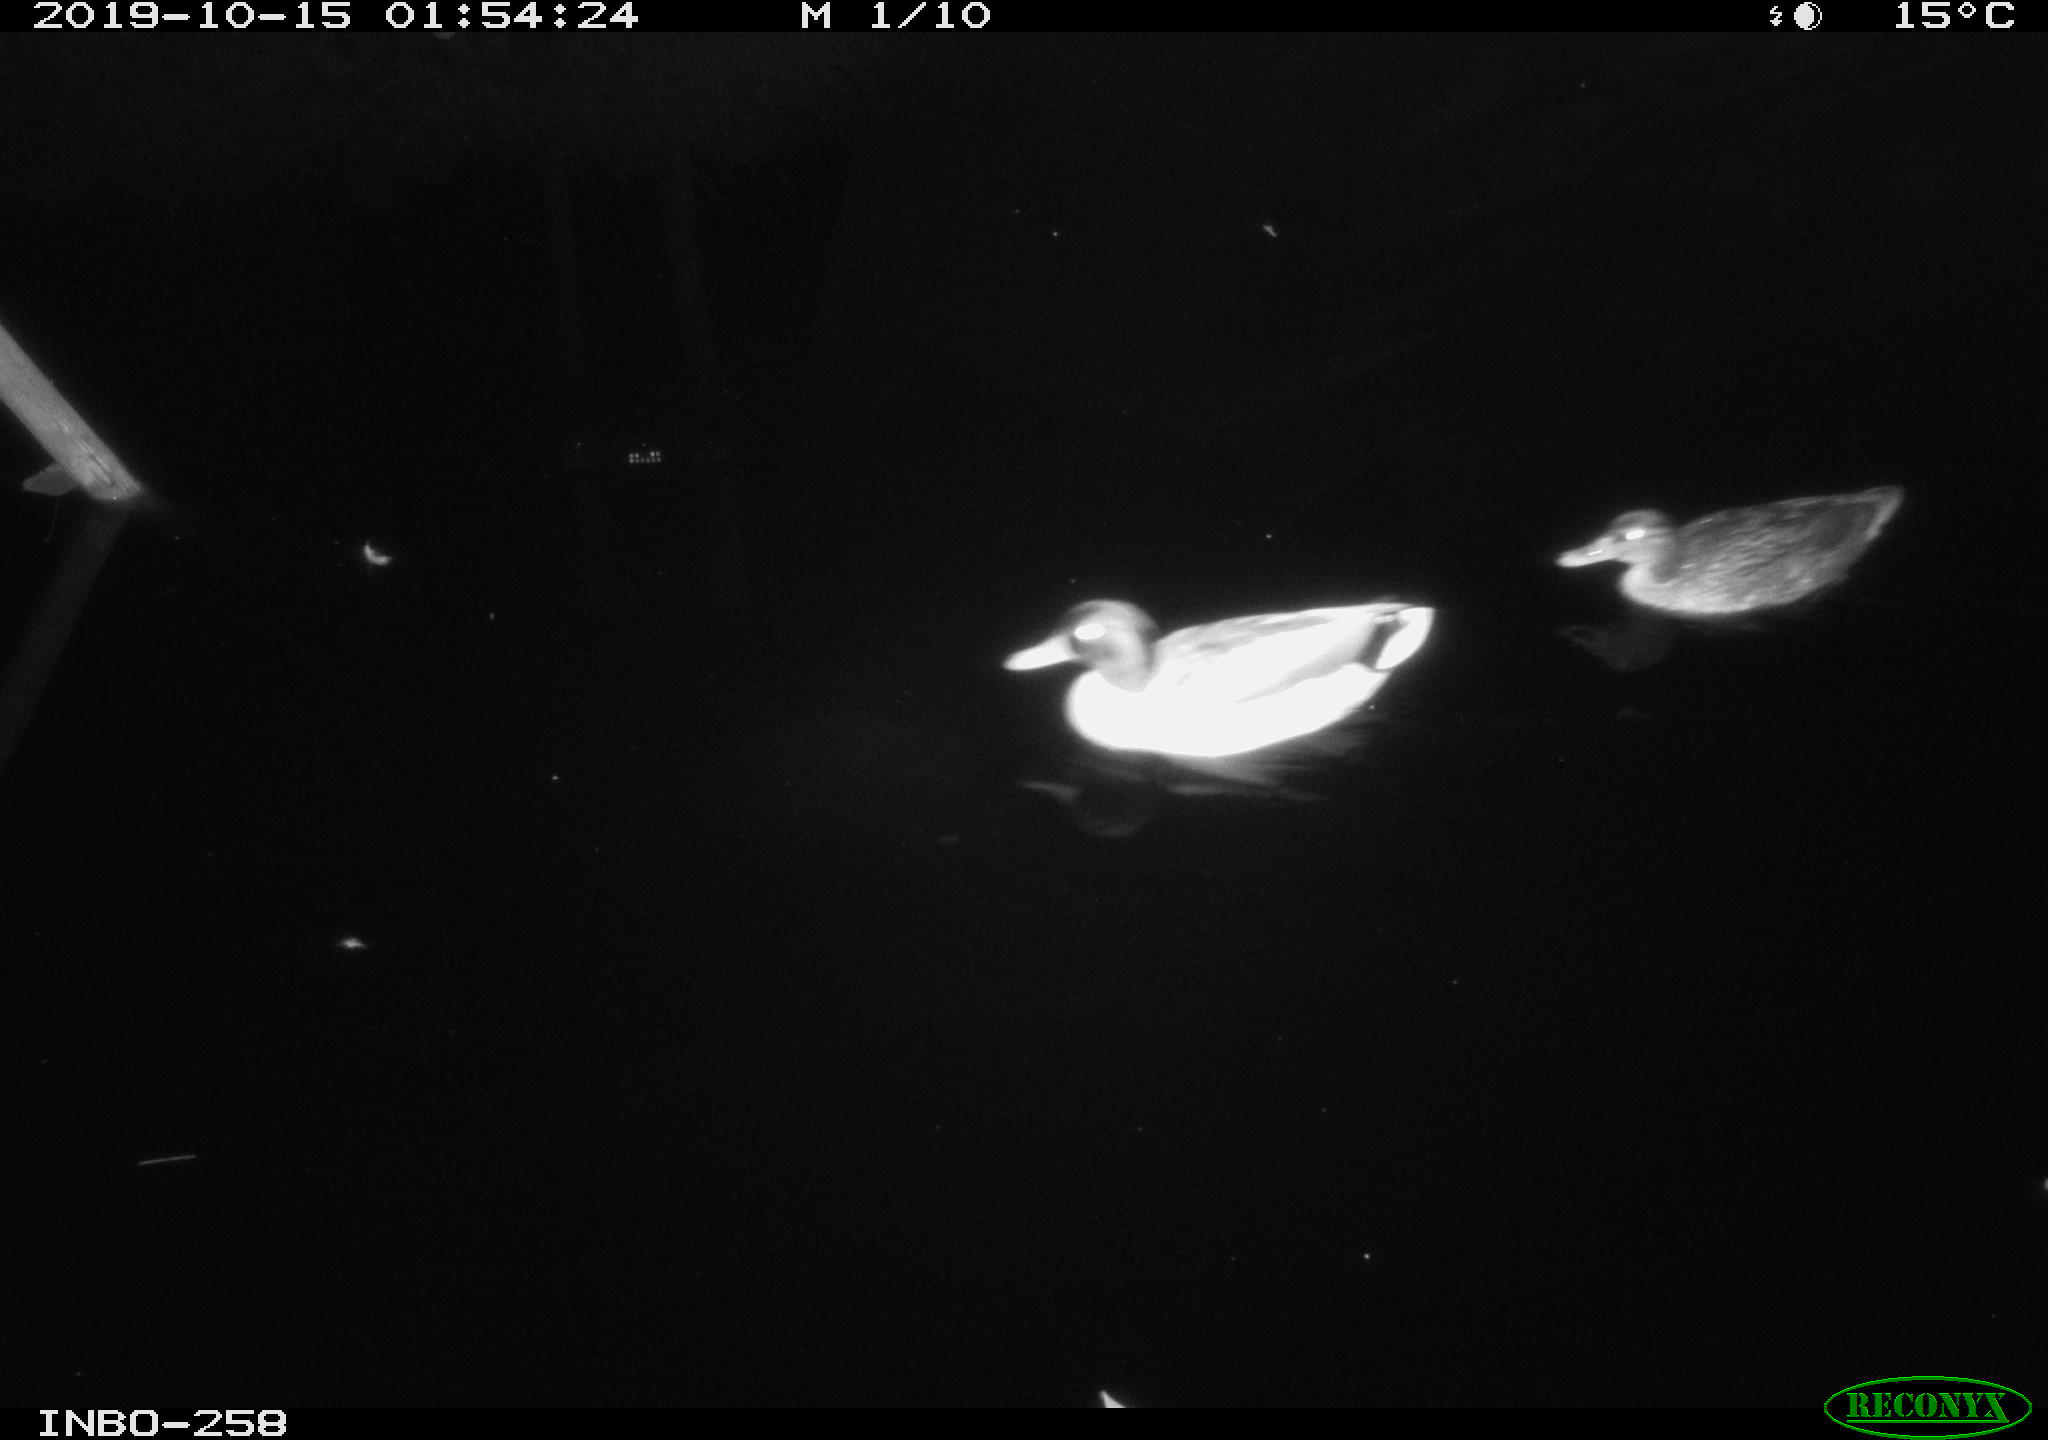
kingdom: Animalia
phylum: Chordata
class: Aves
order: Anseriformes
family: Anatidae
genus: Anas
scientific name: Anas platyrhynchos
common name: Mallard
